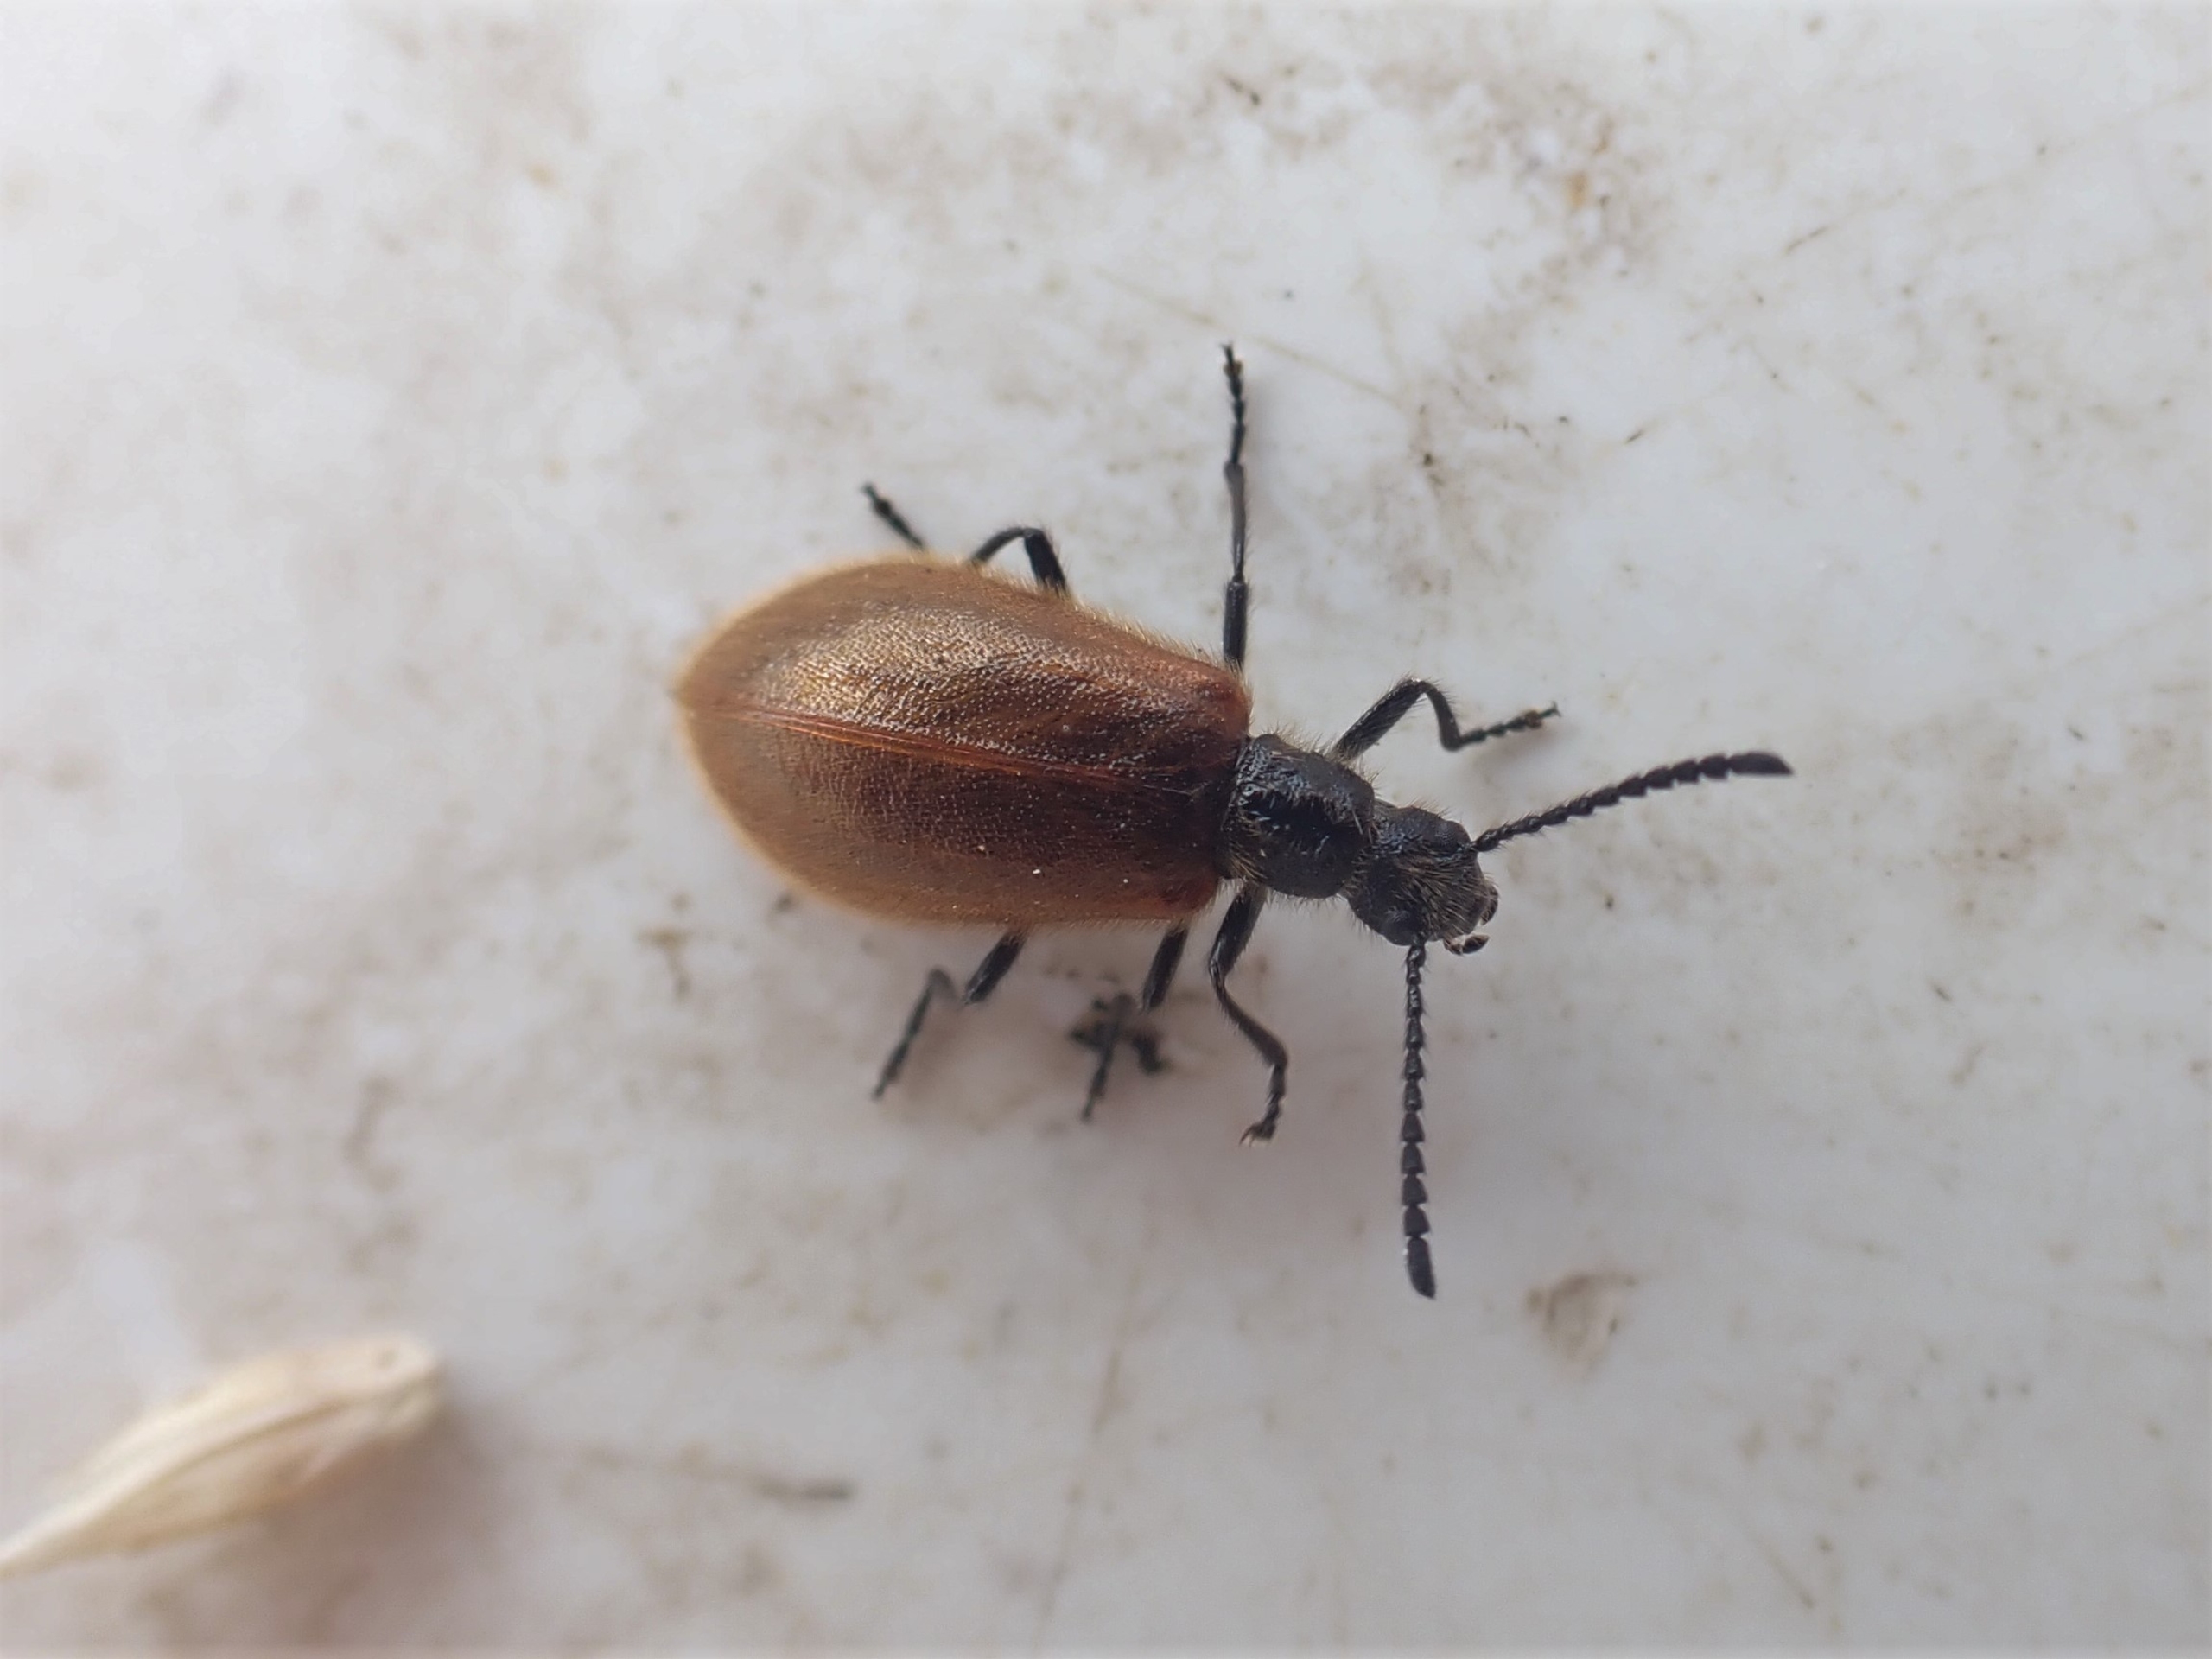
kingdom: Animalia
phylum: Arthropoda
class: Insecta
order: Coleoptera
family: Tenebrionidae
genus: Lagria
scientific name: Lagria hirta
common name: Håret skyggebille
